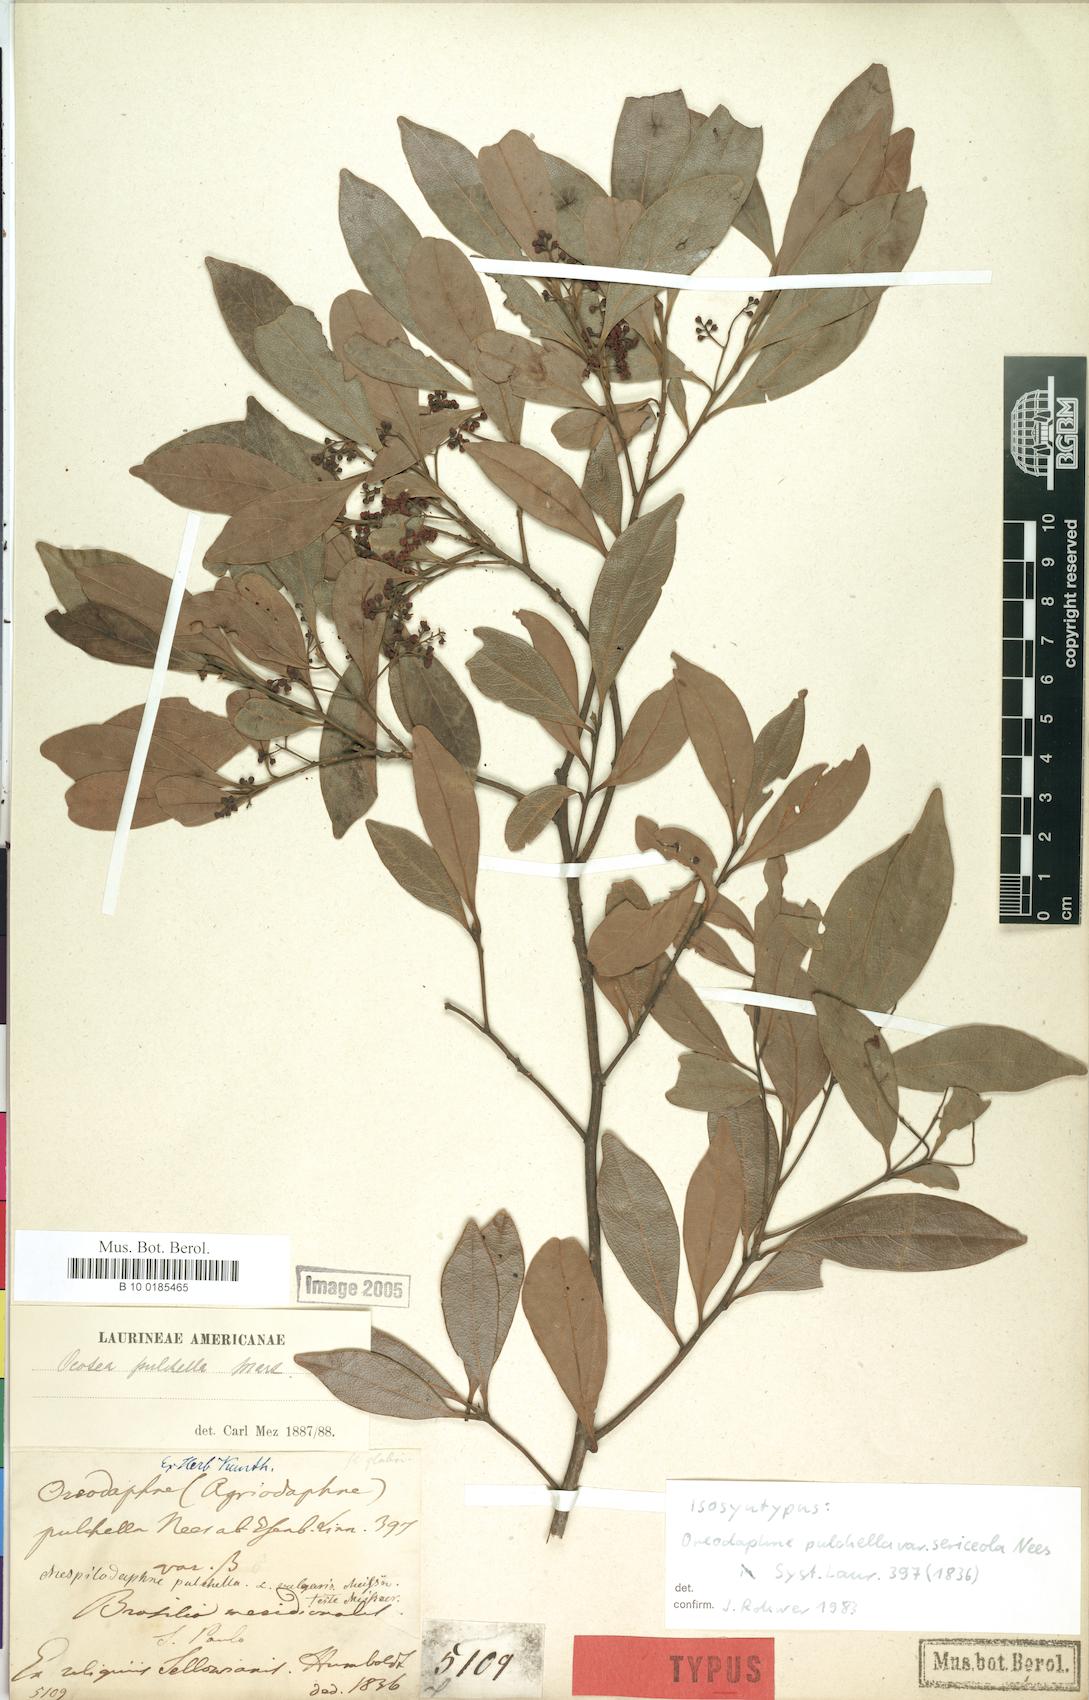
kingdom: Plantae
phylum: Tracheophyta
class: Magnoliopsida
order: Laurales
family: Lauraceae
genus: Mespilodaphne
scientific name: Mespilodaphne pulchella
